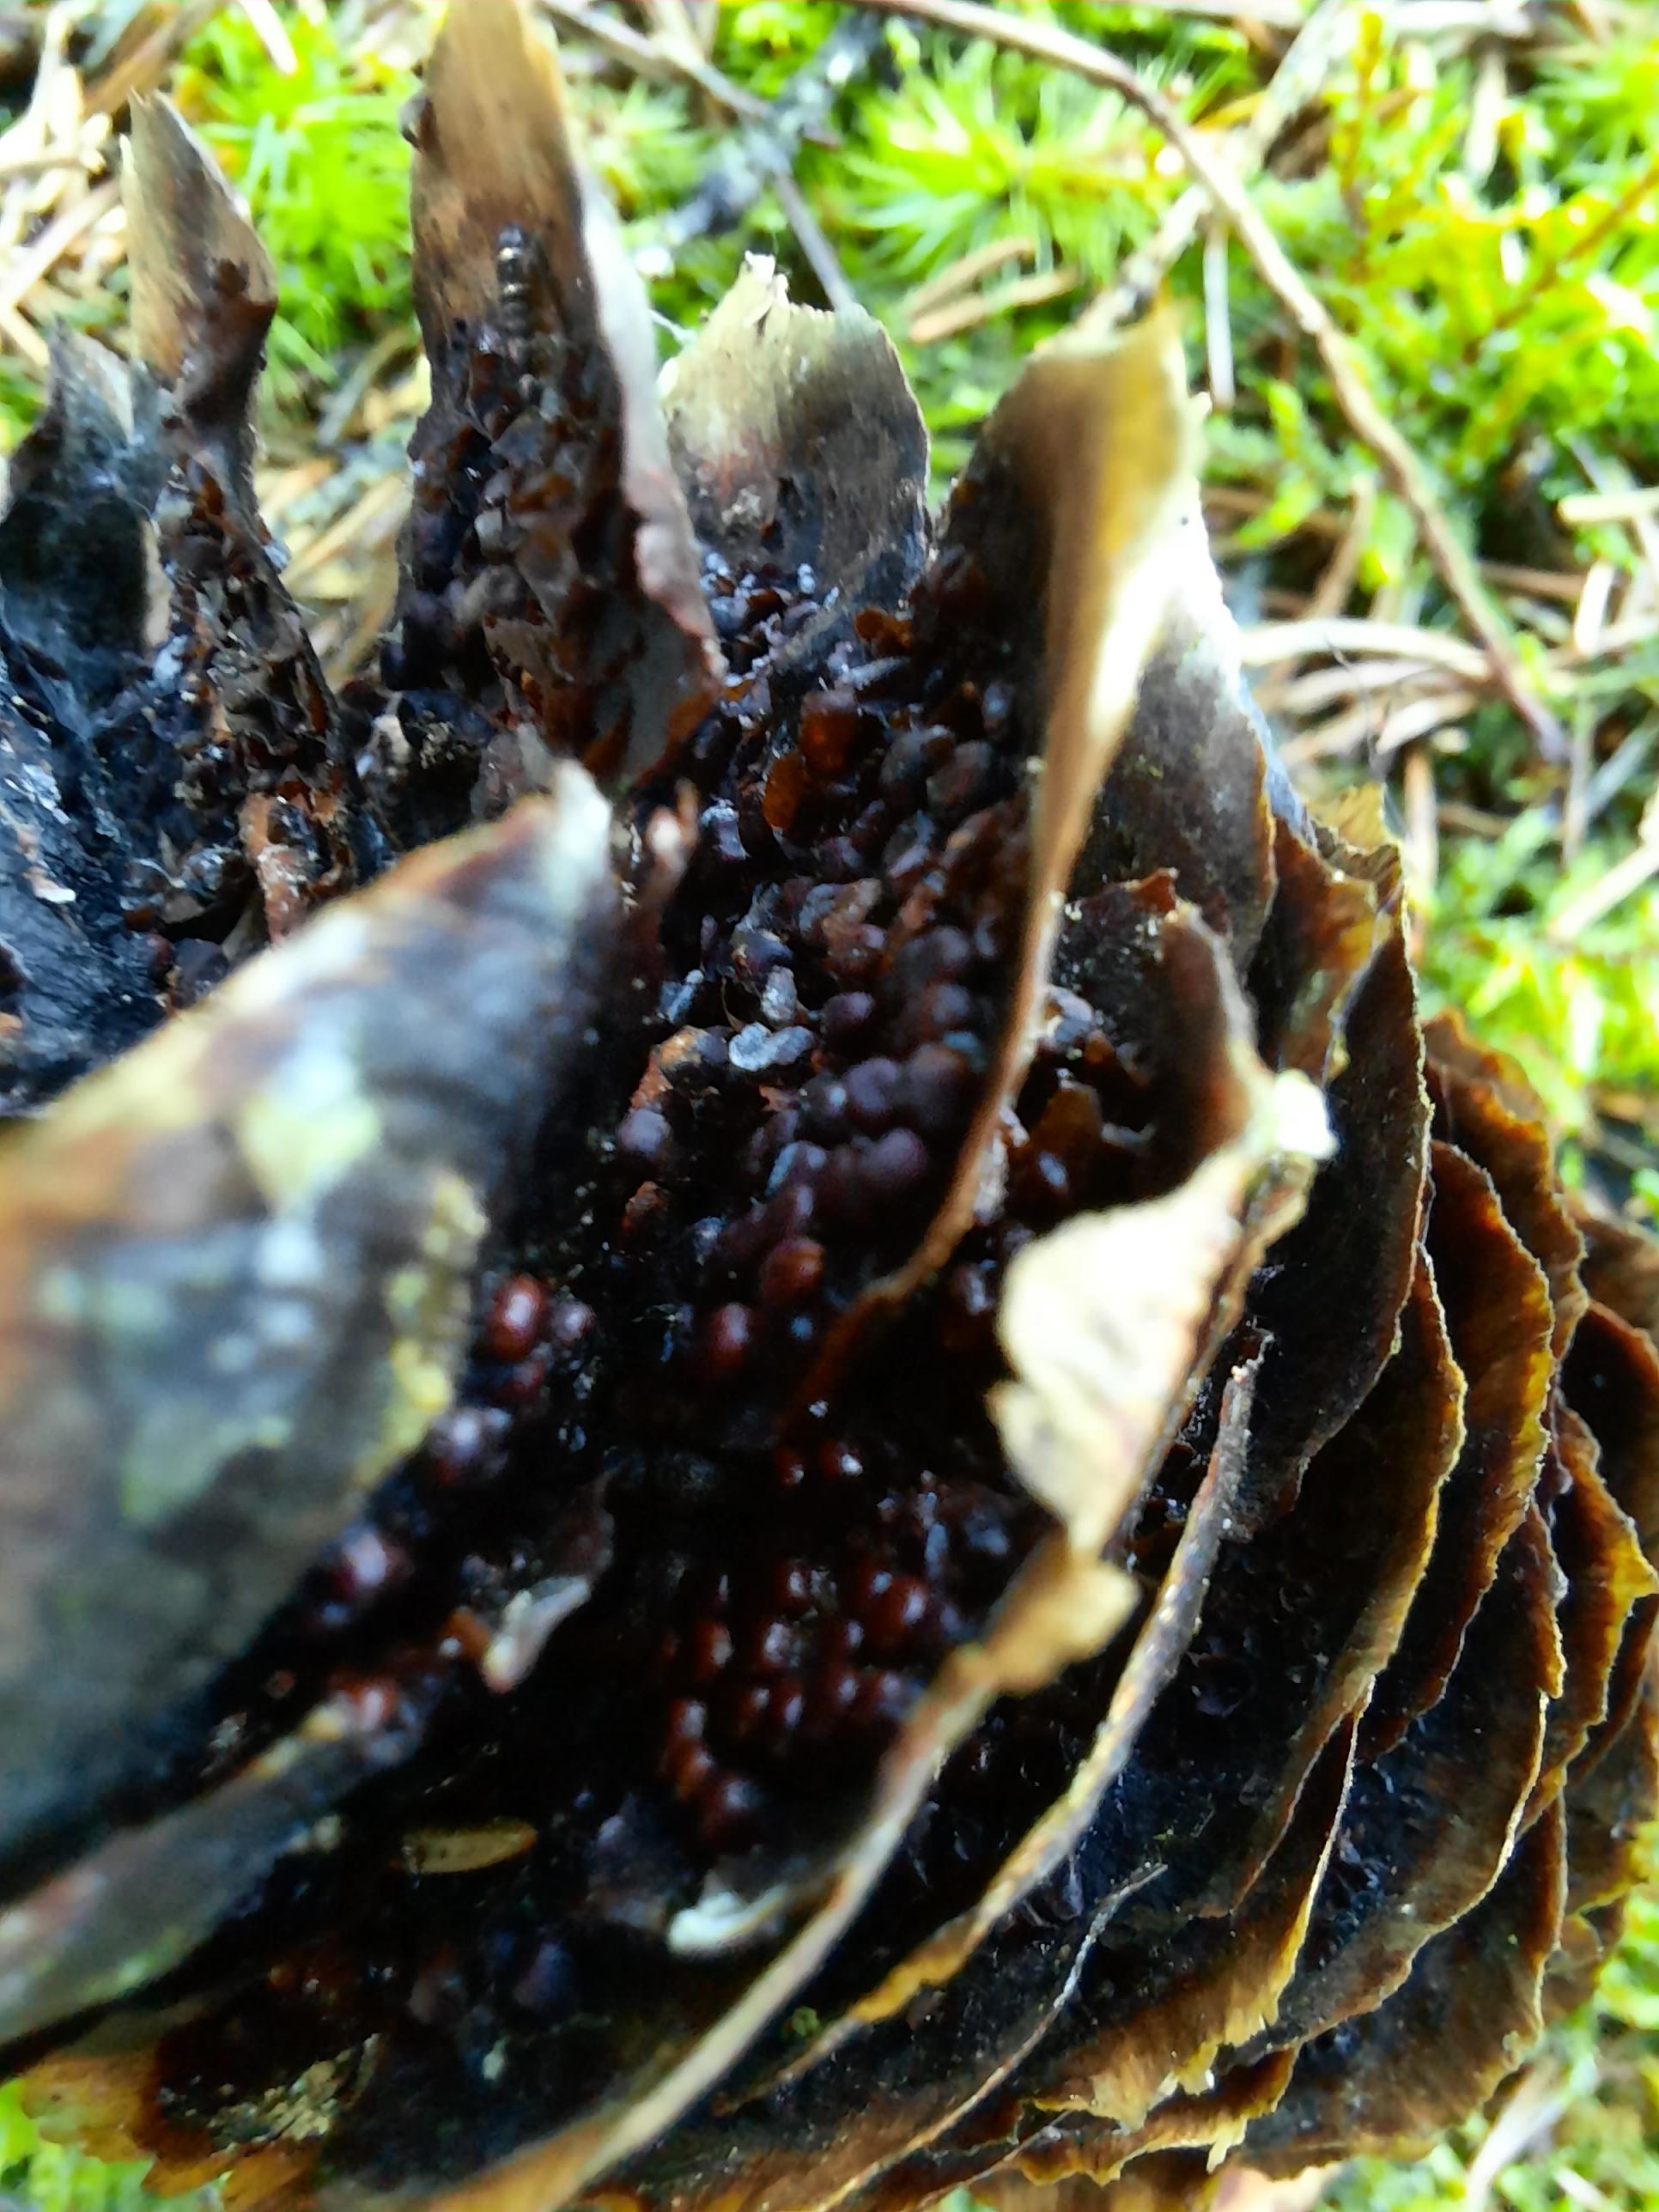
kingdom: Fungi
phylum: Basidiomycota
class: Pucciniomycetes
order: Pucciniales
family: Pucciniastraceae
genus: Thekopsora
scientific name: Thekopsora areolata
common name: grankogle-nålerust
